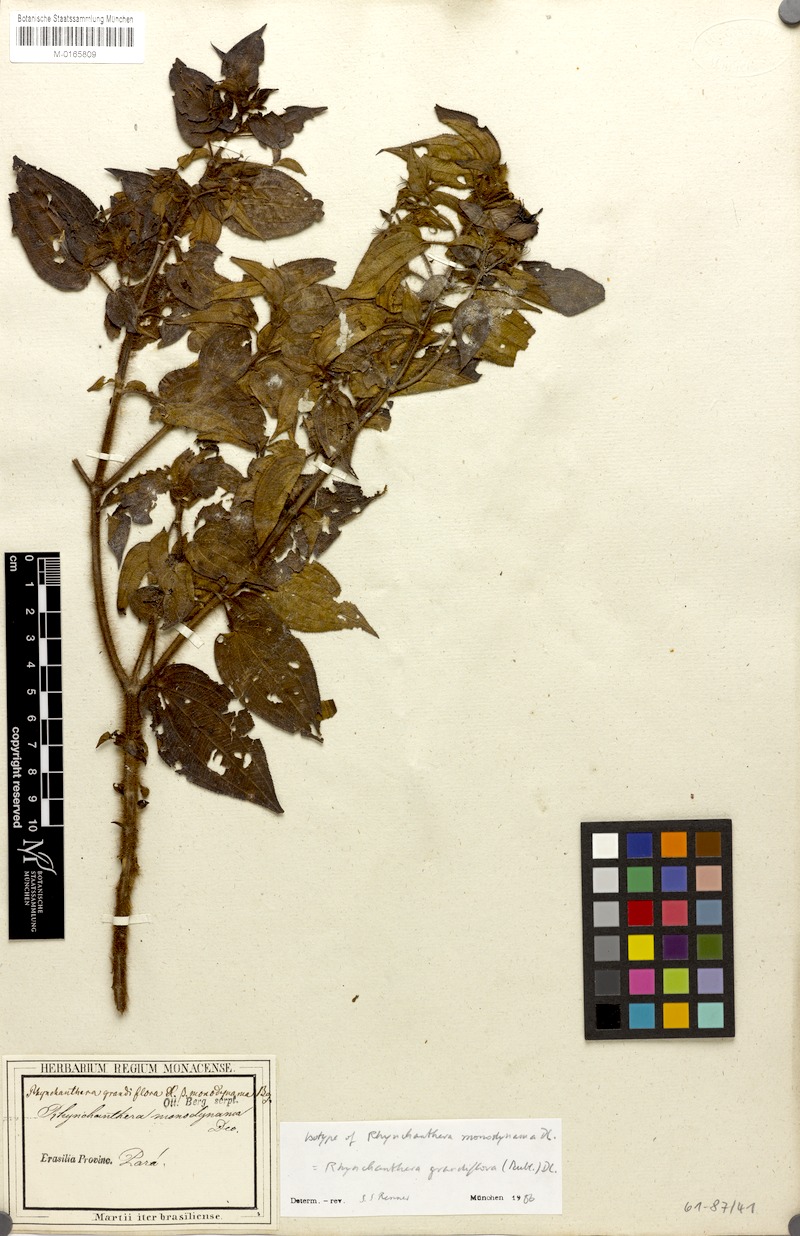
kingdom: Plantae
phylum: Tracheophyta
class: Magnoliopsida
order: Myrtales
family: Melastomataceae
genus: Rhynchanthera
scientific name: Rhynchanthera grandiflora
